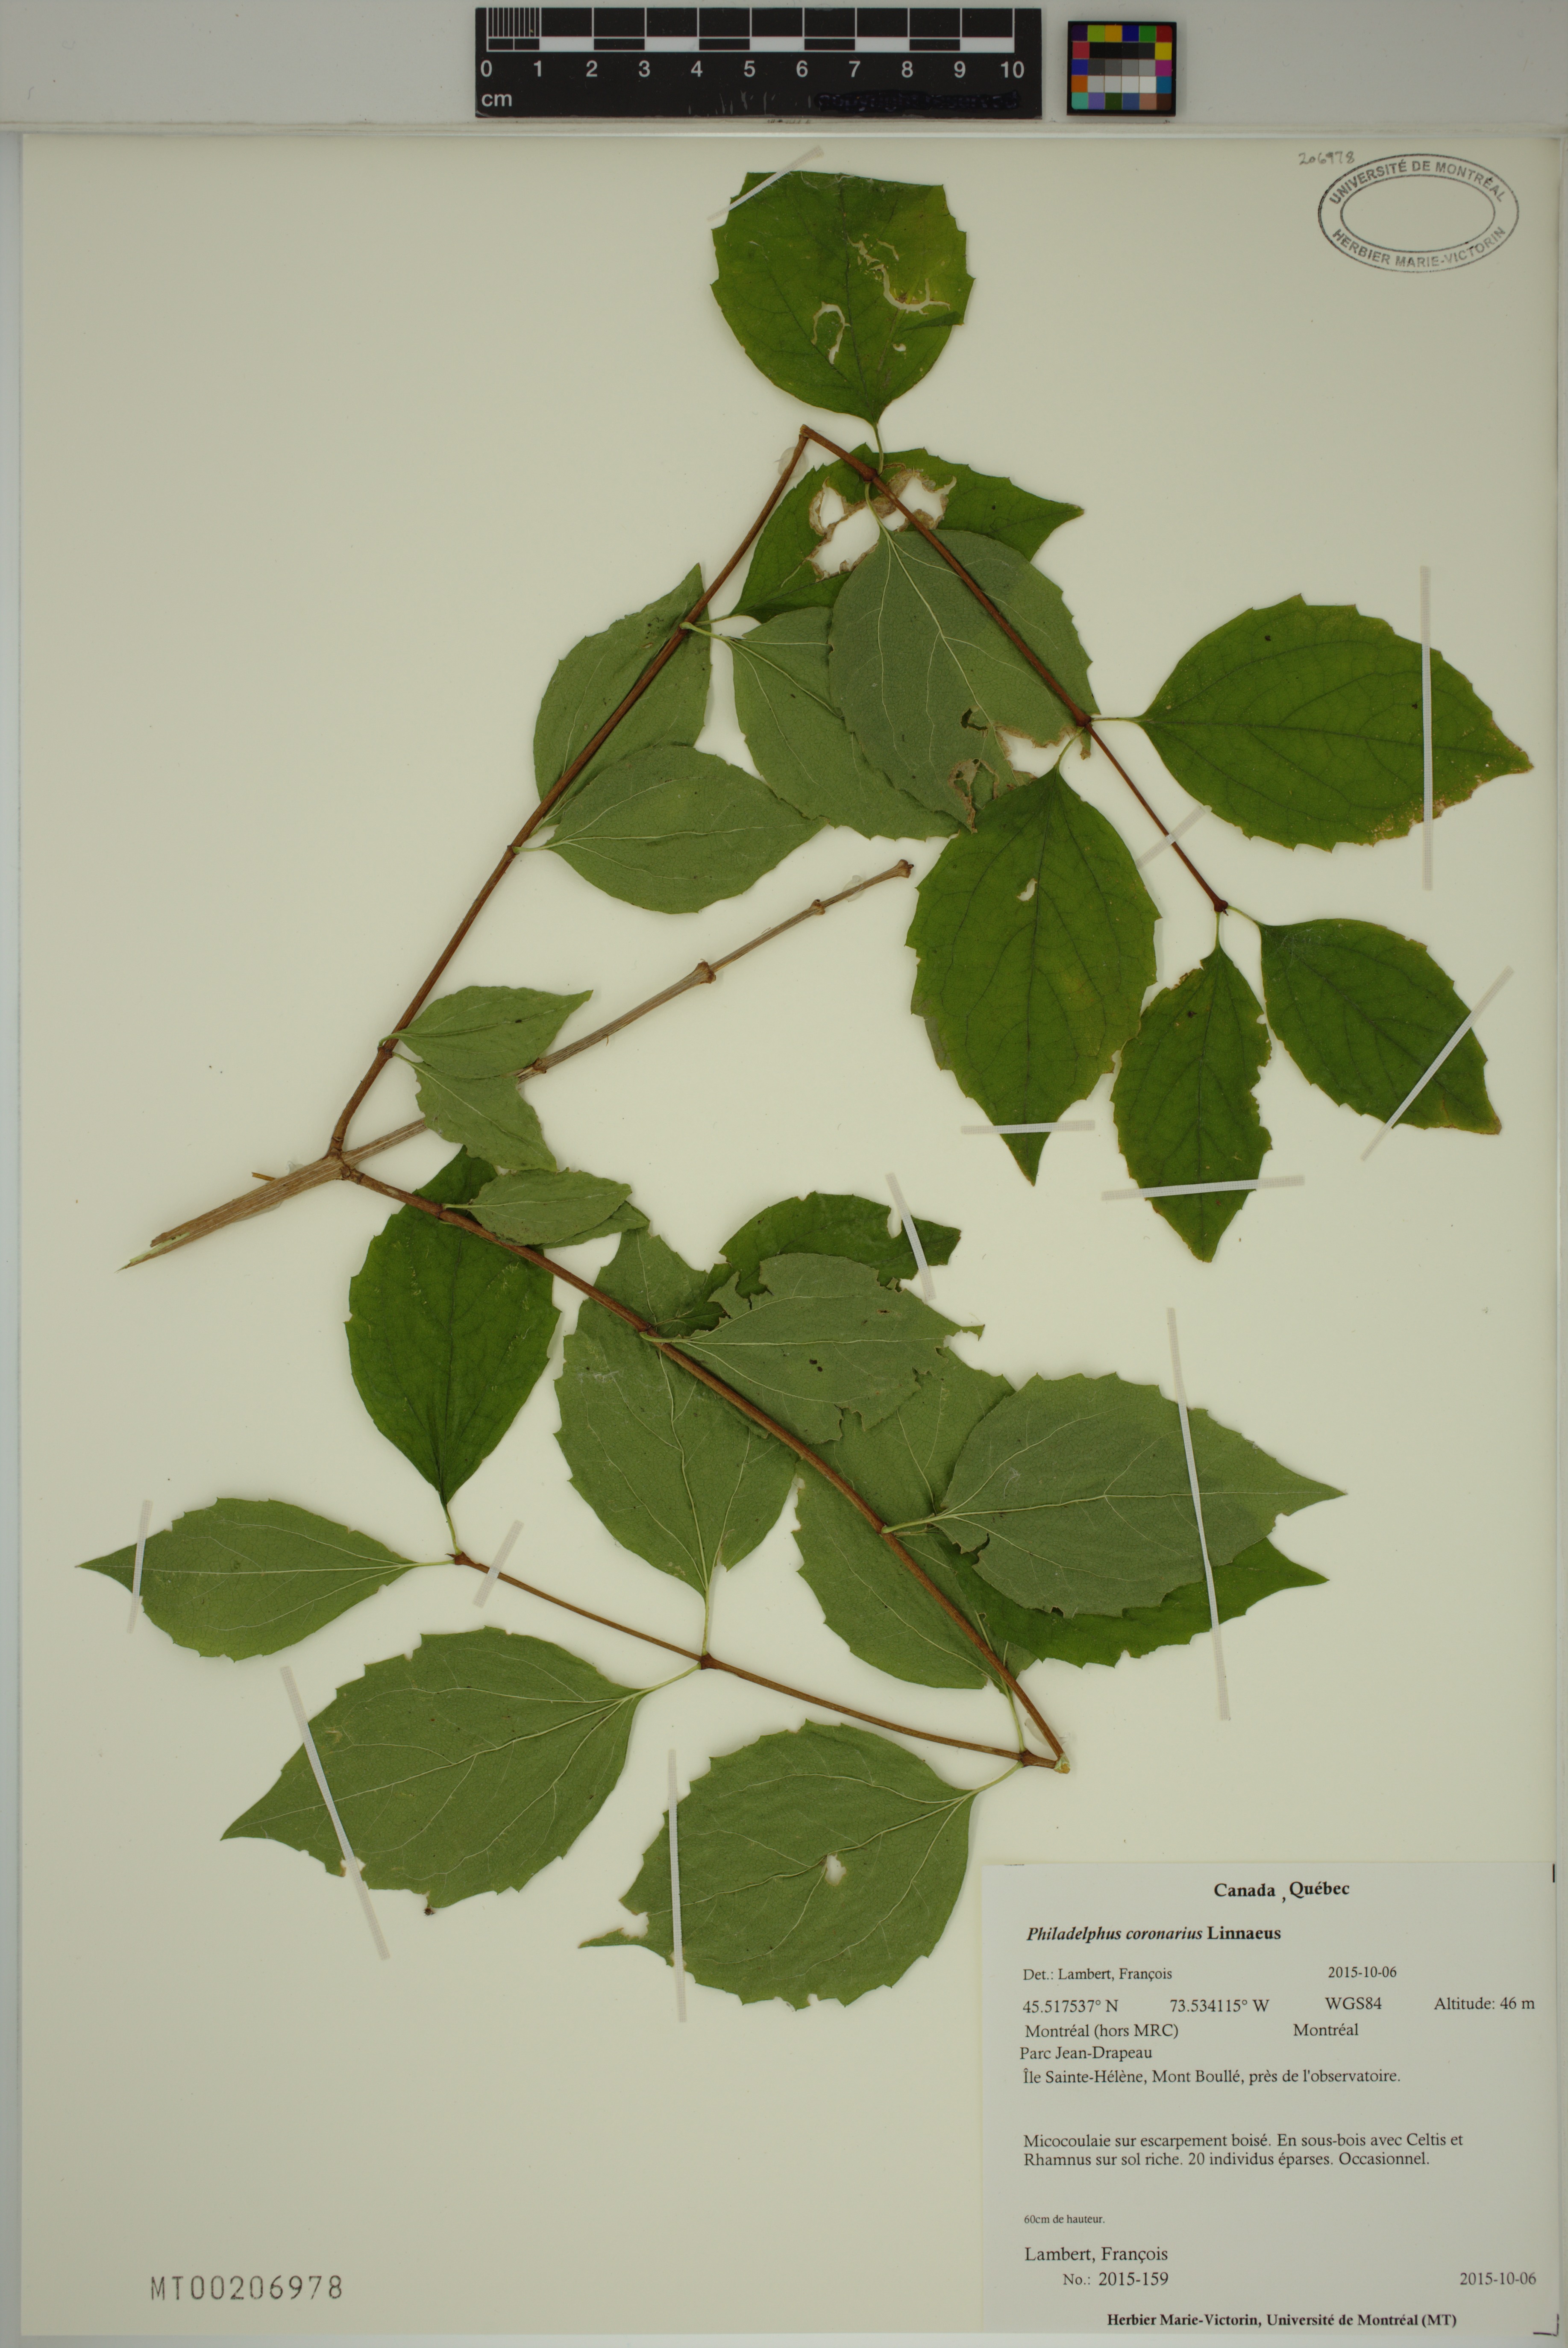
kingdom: Plantae
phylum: Tracheophyta
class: Magnoliopsida
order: Cornales
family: Hydrangeaceae
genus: Philadelphus
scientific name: Philadelphus coronarius
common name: Mock orange
